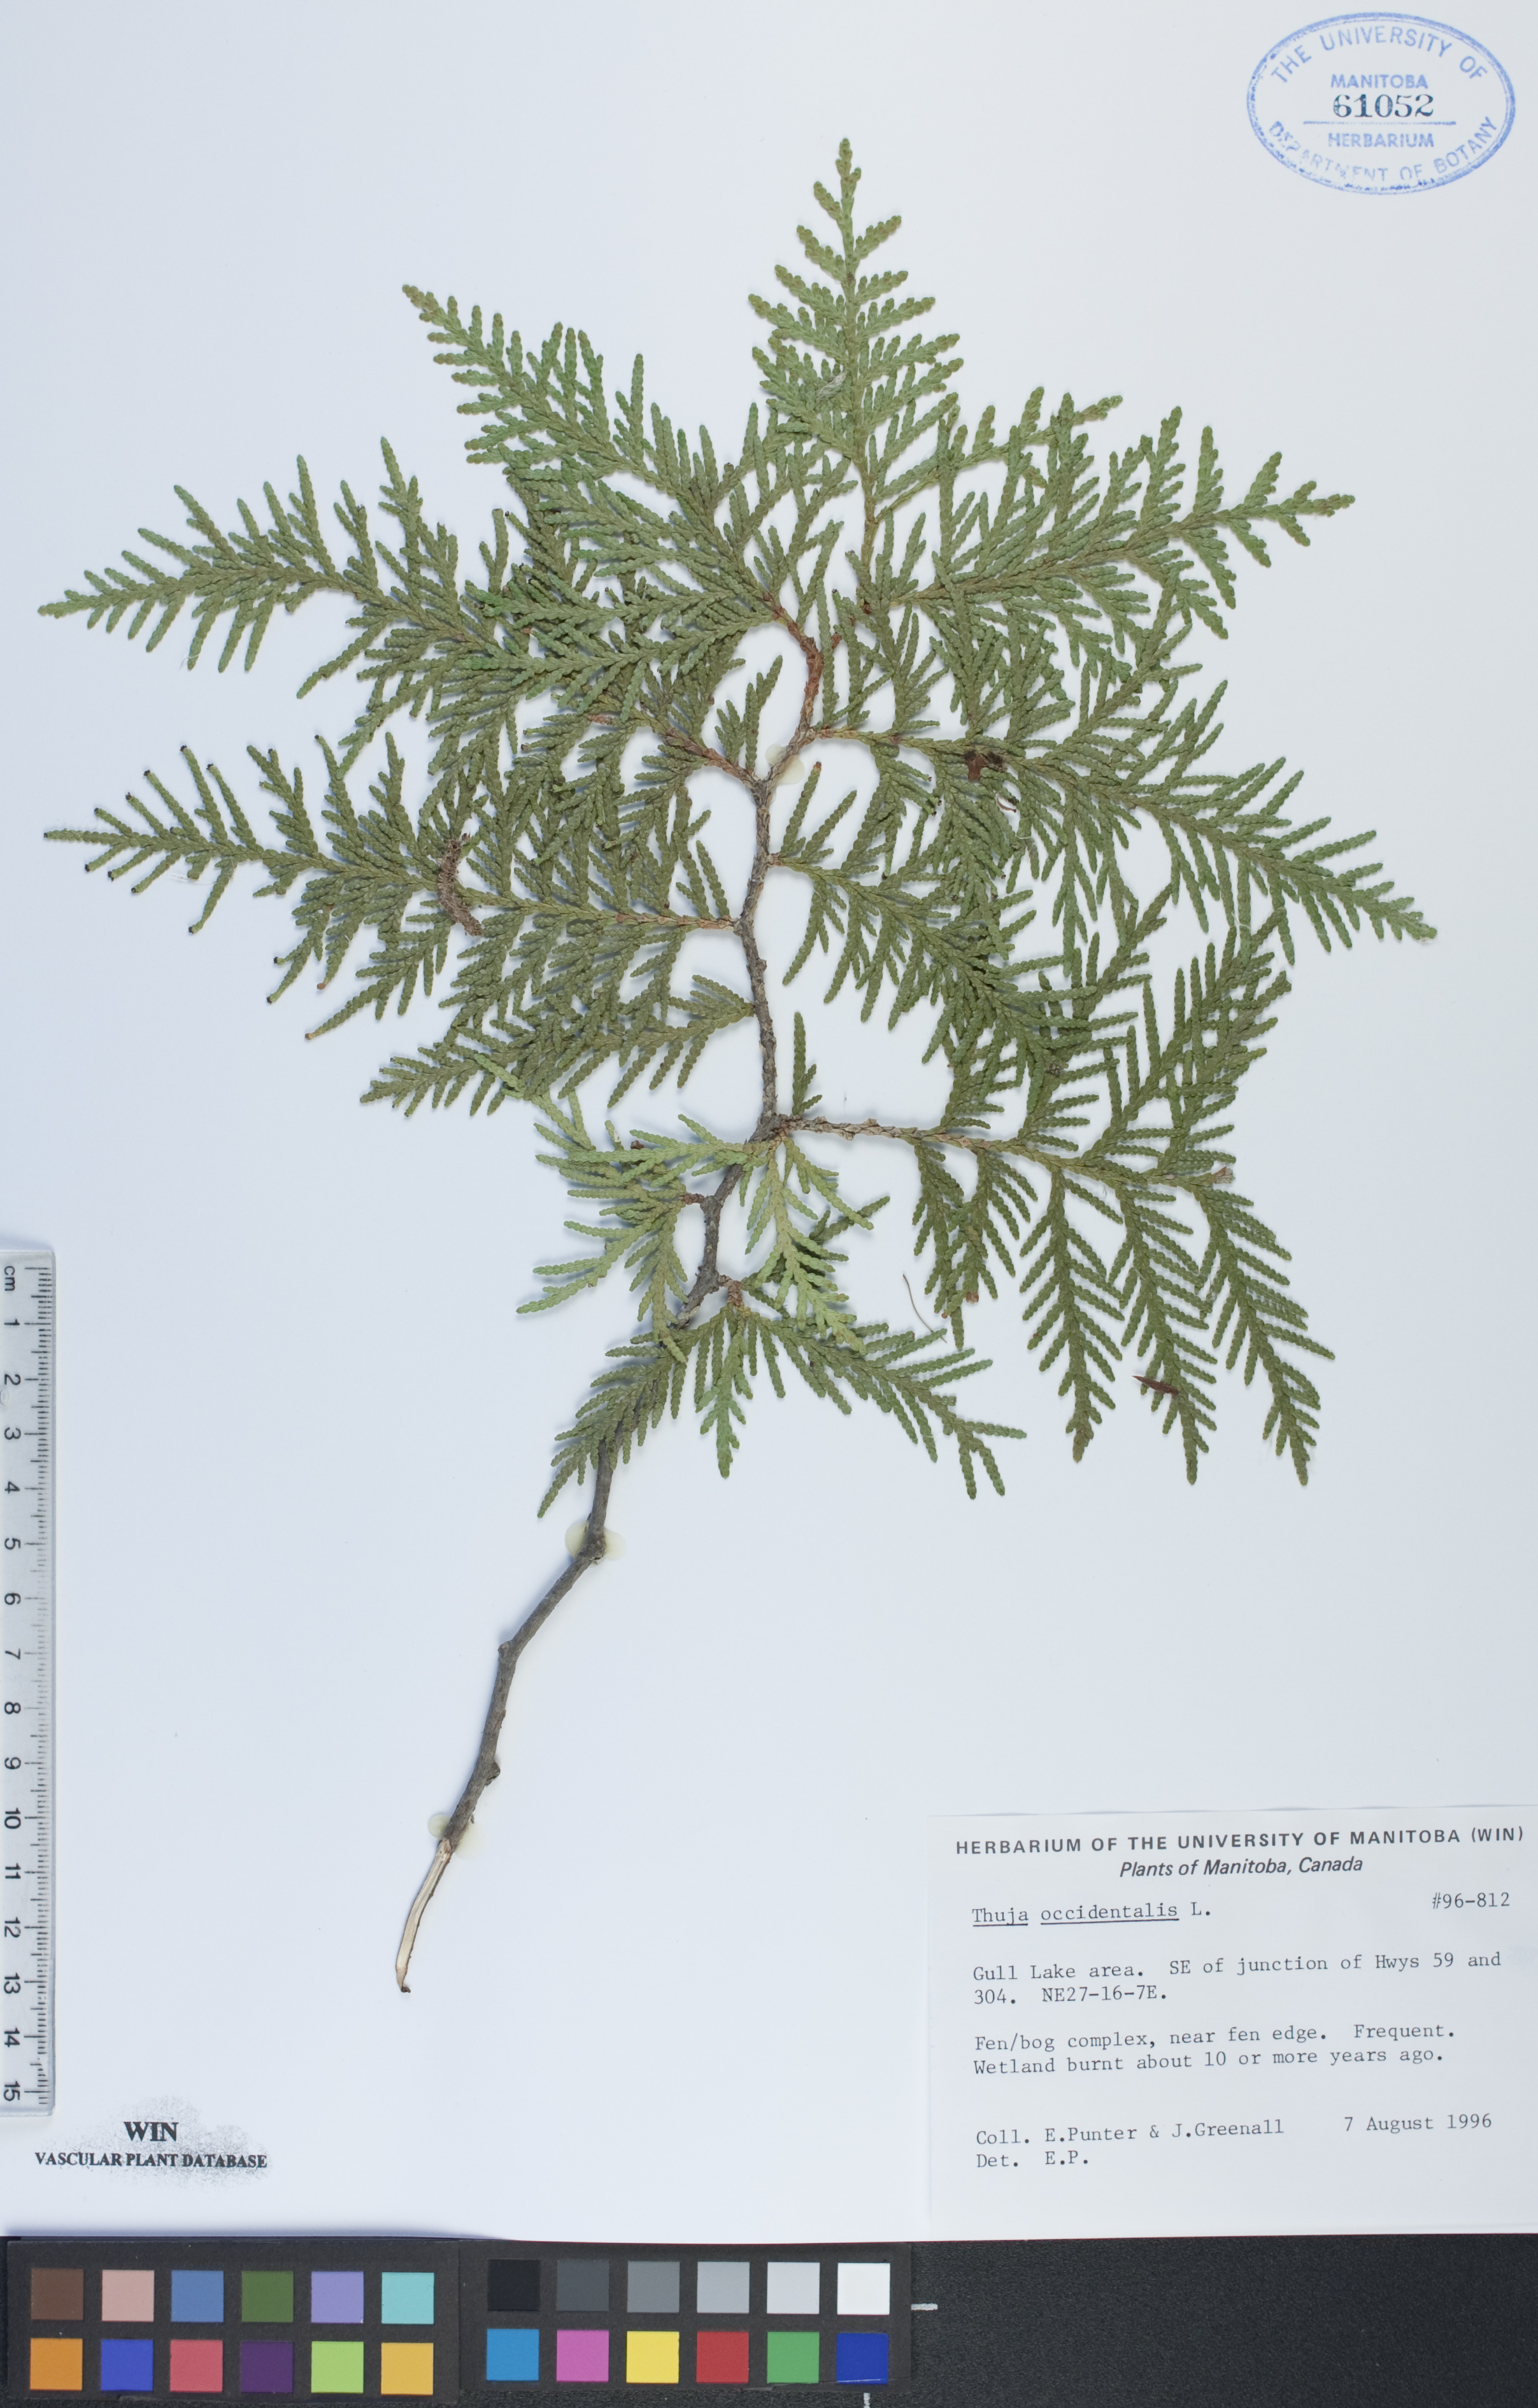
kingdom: Plantae
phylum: Tracheophyta
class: Pinopsida
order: Pinales
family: Cupressaceae
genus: Thuja
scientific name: Thuja occidentalis
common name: Northern white-cedar
